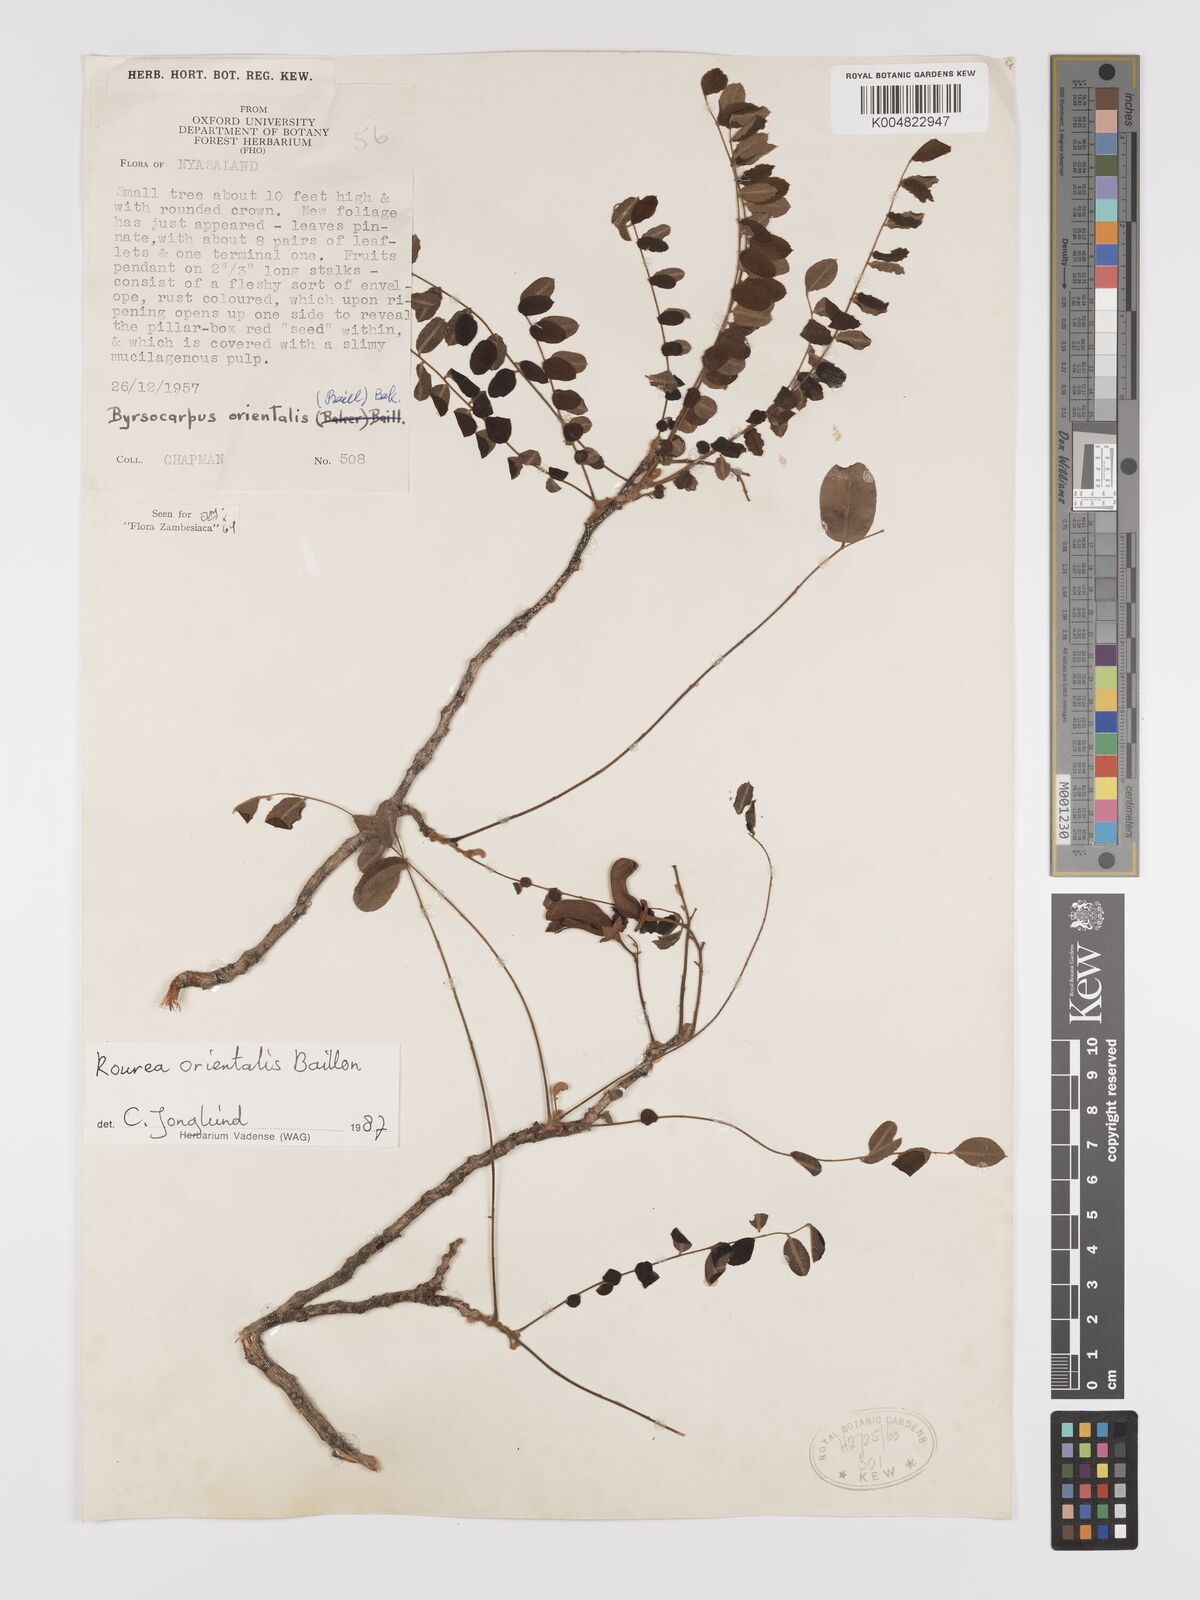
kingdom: Plantae
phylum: Tracheophyta
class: Magnoliopsida
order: Oxalidales
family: Connaraceae
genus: Rourea
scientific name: Rourea orientalis
